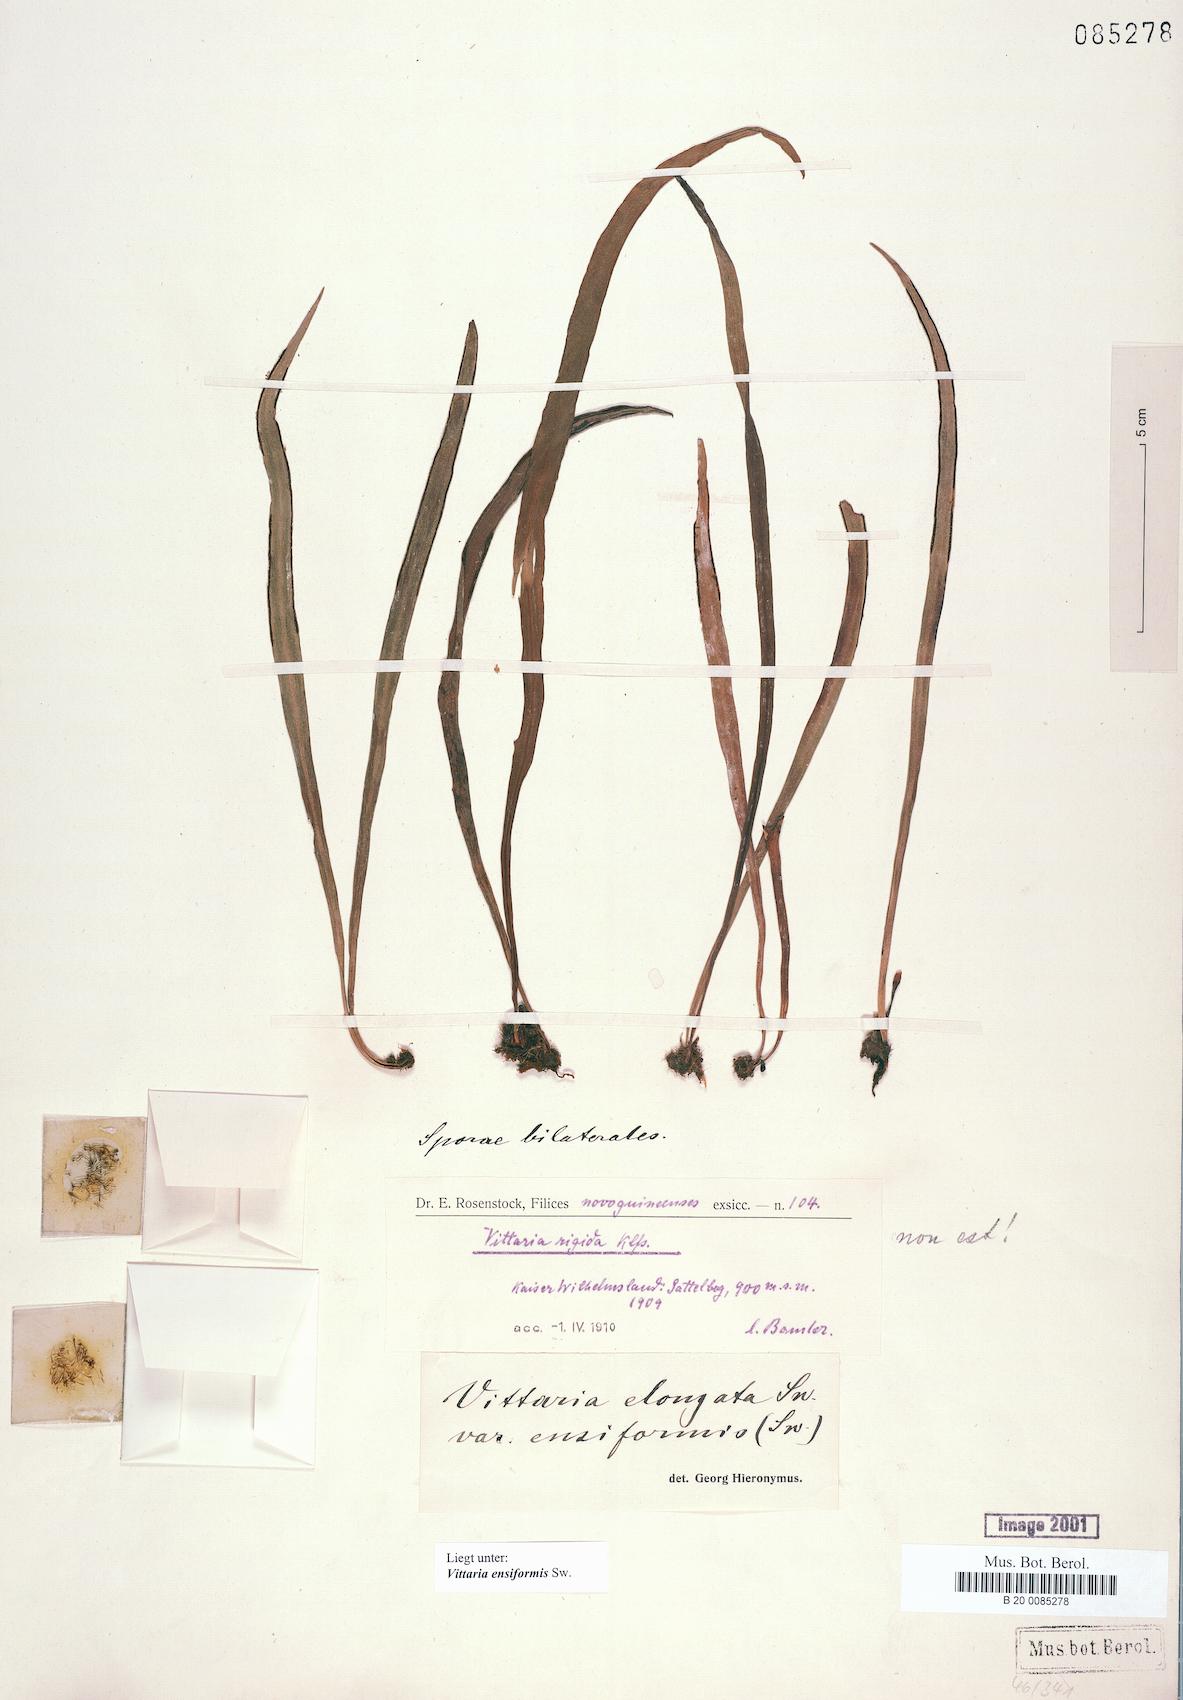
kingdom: Plantae
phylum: Tracheophyta
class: Polypodiopsida
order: Polypodiales
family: Pteridaceae
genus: Haplopteris
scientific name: Haplopteris ensiformis
